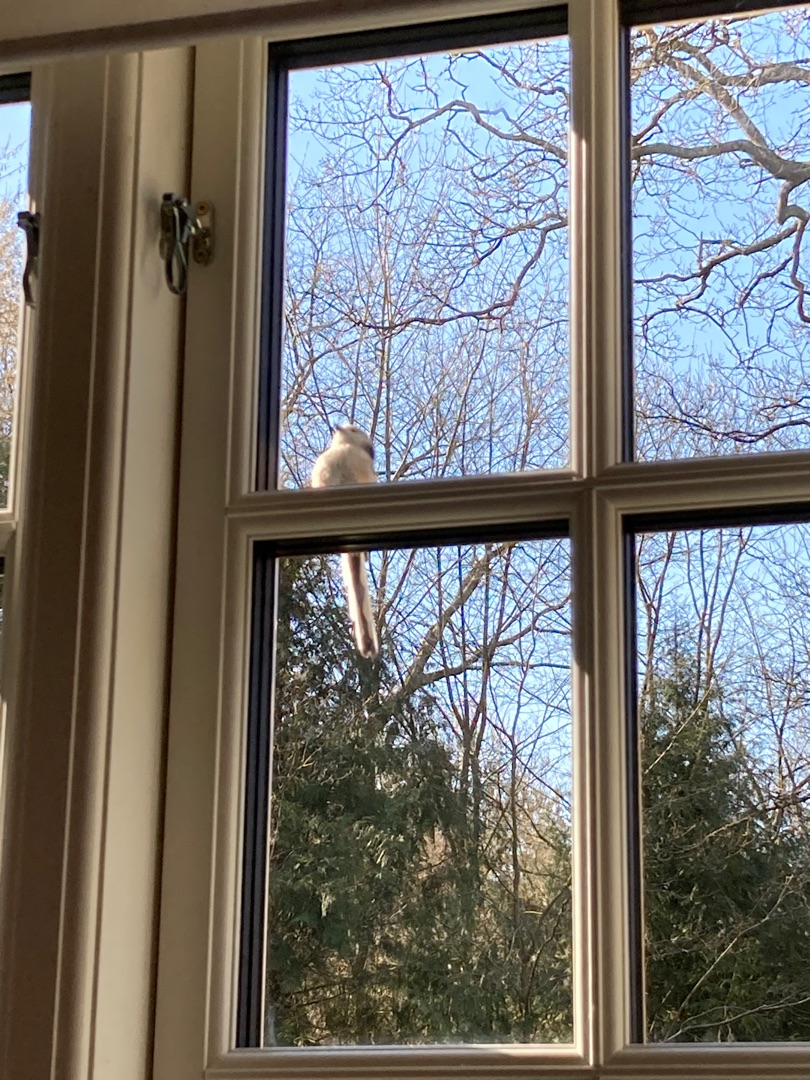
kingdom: Animalia
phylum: Chordata
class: Aves
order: Passeriformes
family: Aegithalidae
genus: Aegithalos
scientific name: Aegithalos caudatus
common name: Halemejse
